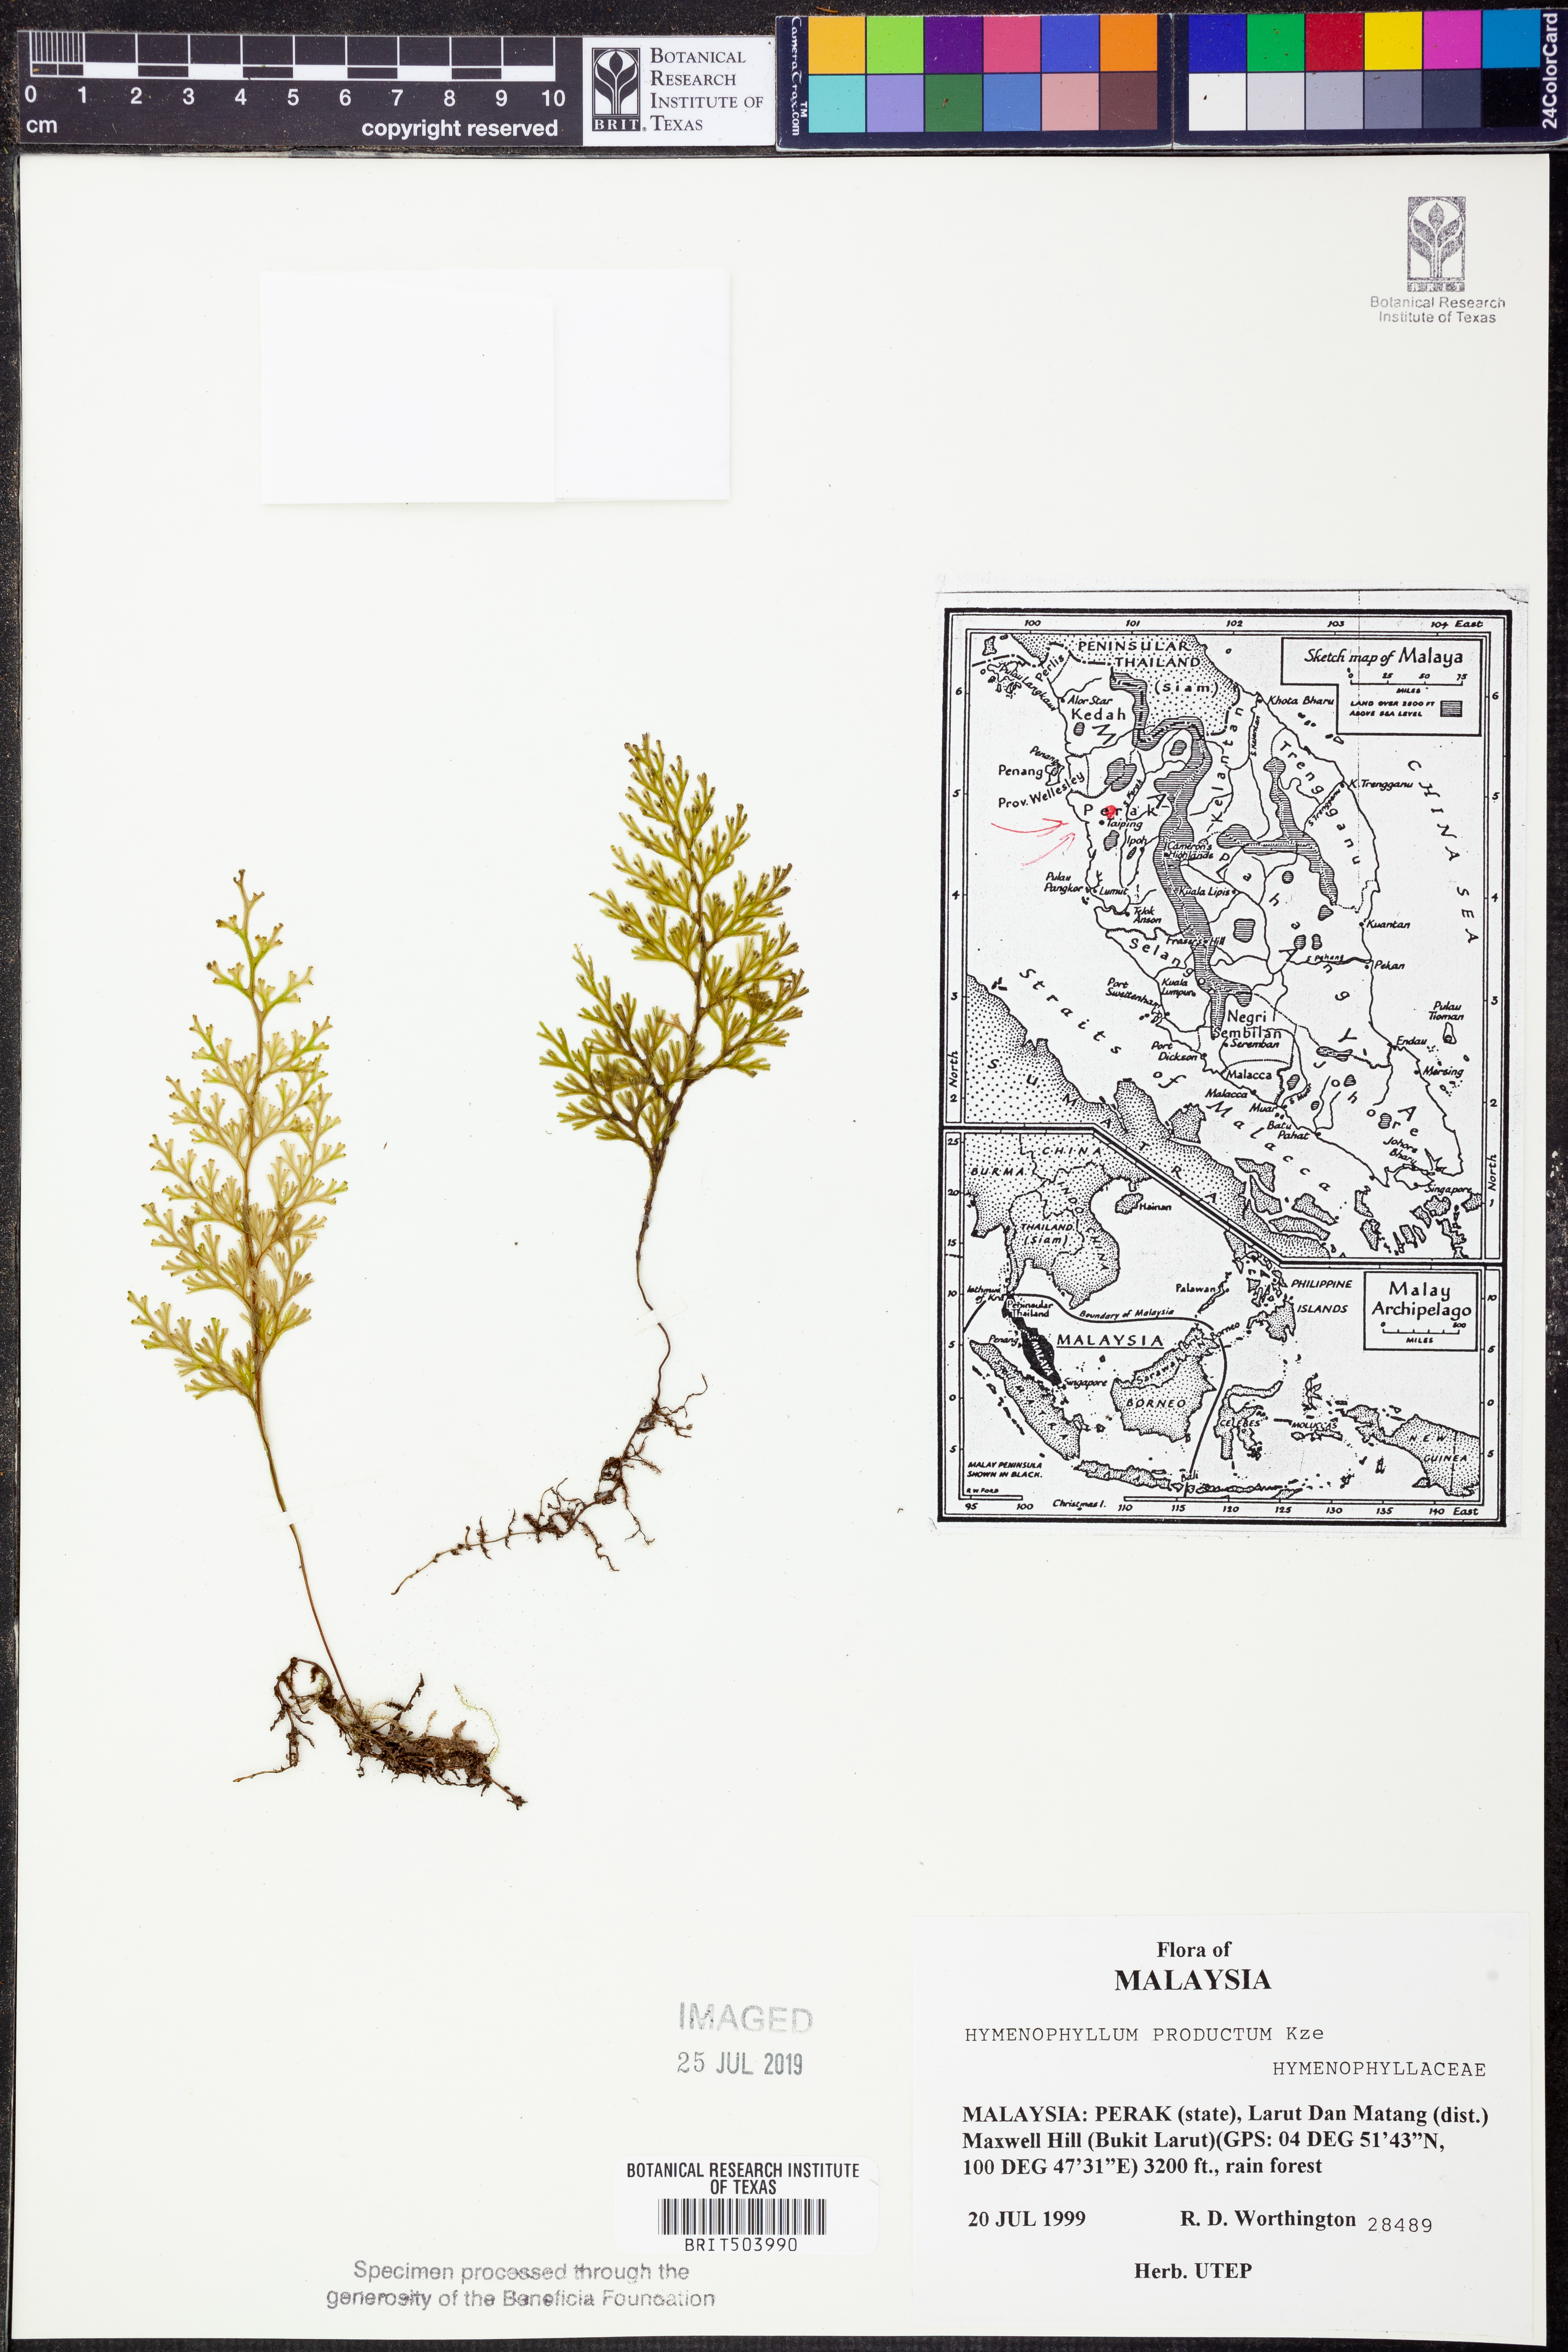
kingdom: Plantae
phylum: Tracheophyta
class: Polypodiopsida
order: Hymenophyllales
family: Hymenophyllaceae
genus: Hymenophyllum
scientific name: Hymenophyllum productum
